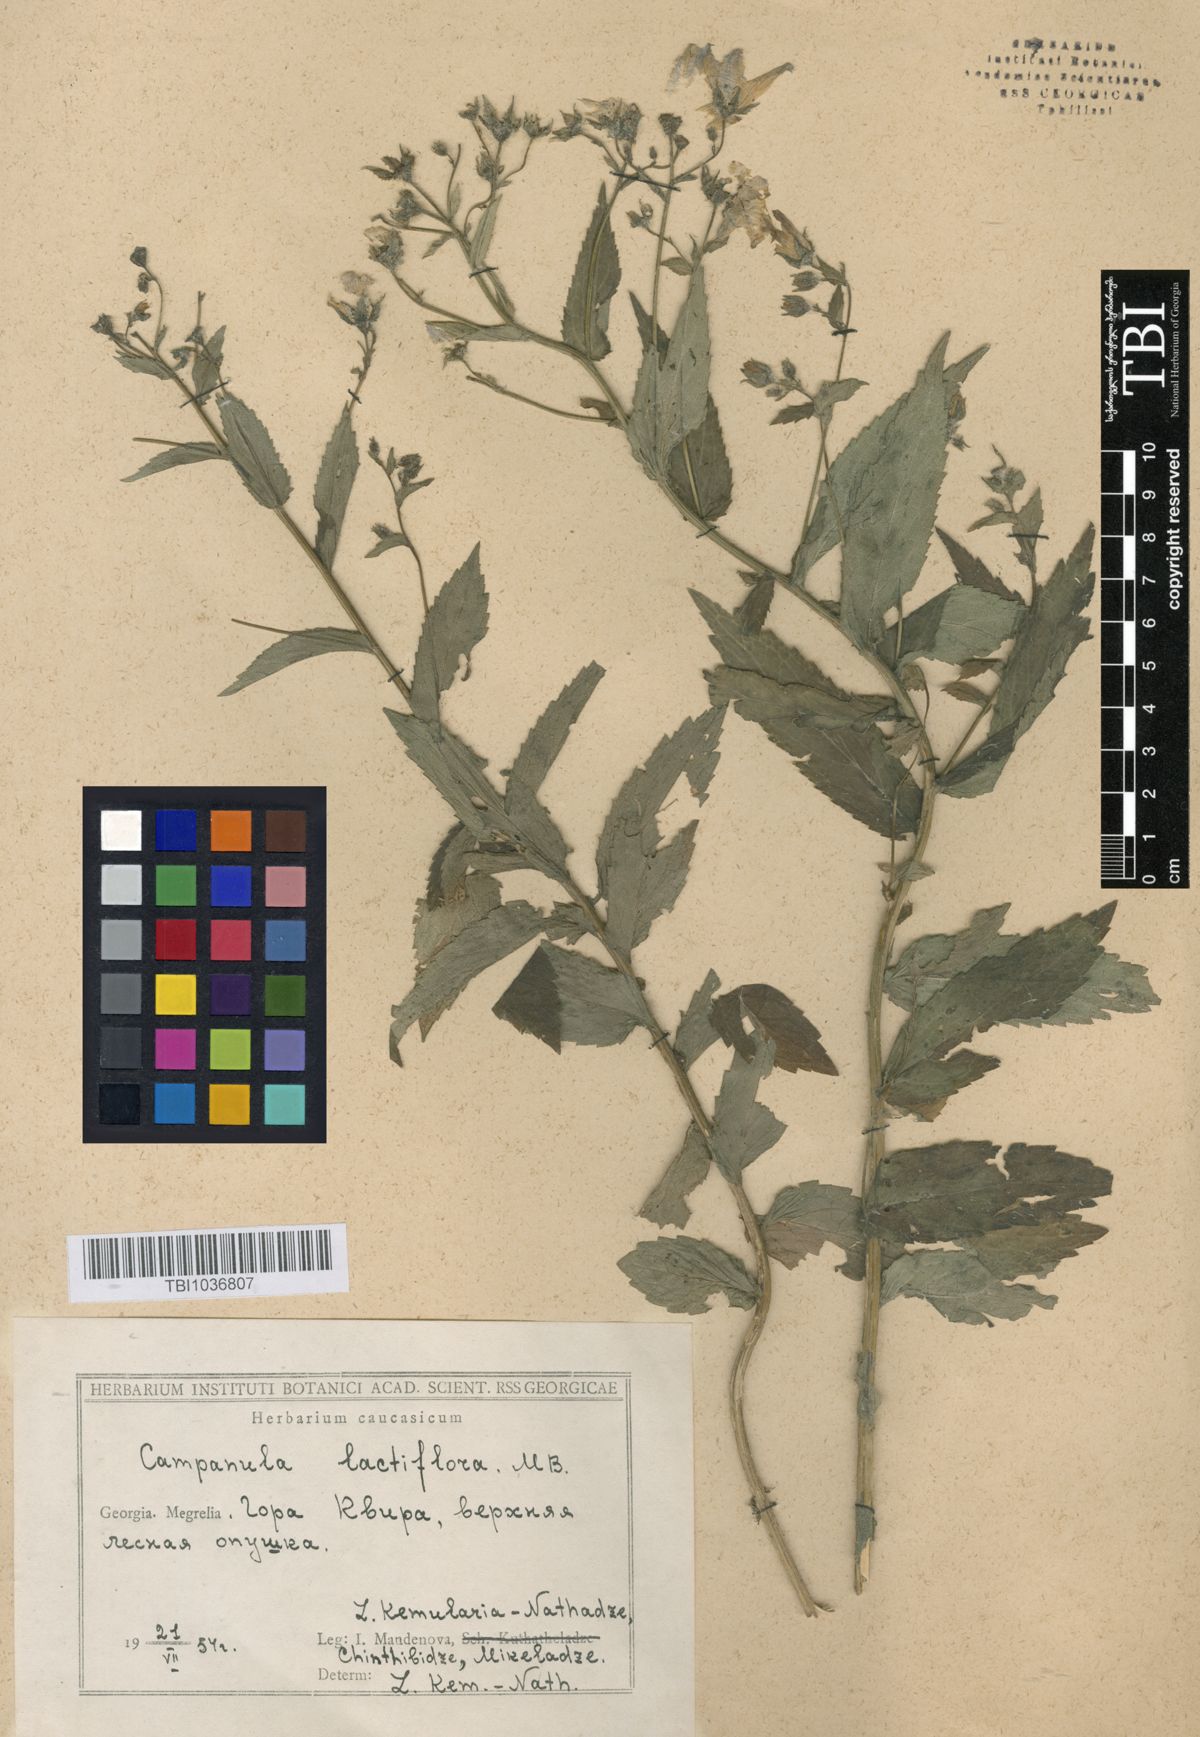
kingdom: Plantae
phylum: Tracheophyta
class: Magnoliopsida
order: Asterales
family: Campanulaceae
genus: Campanula
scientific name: Campanula lactiflora
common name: Milky bellflower
